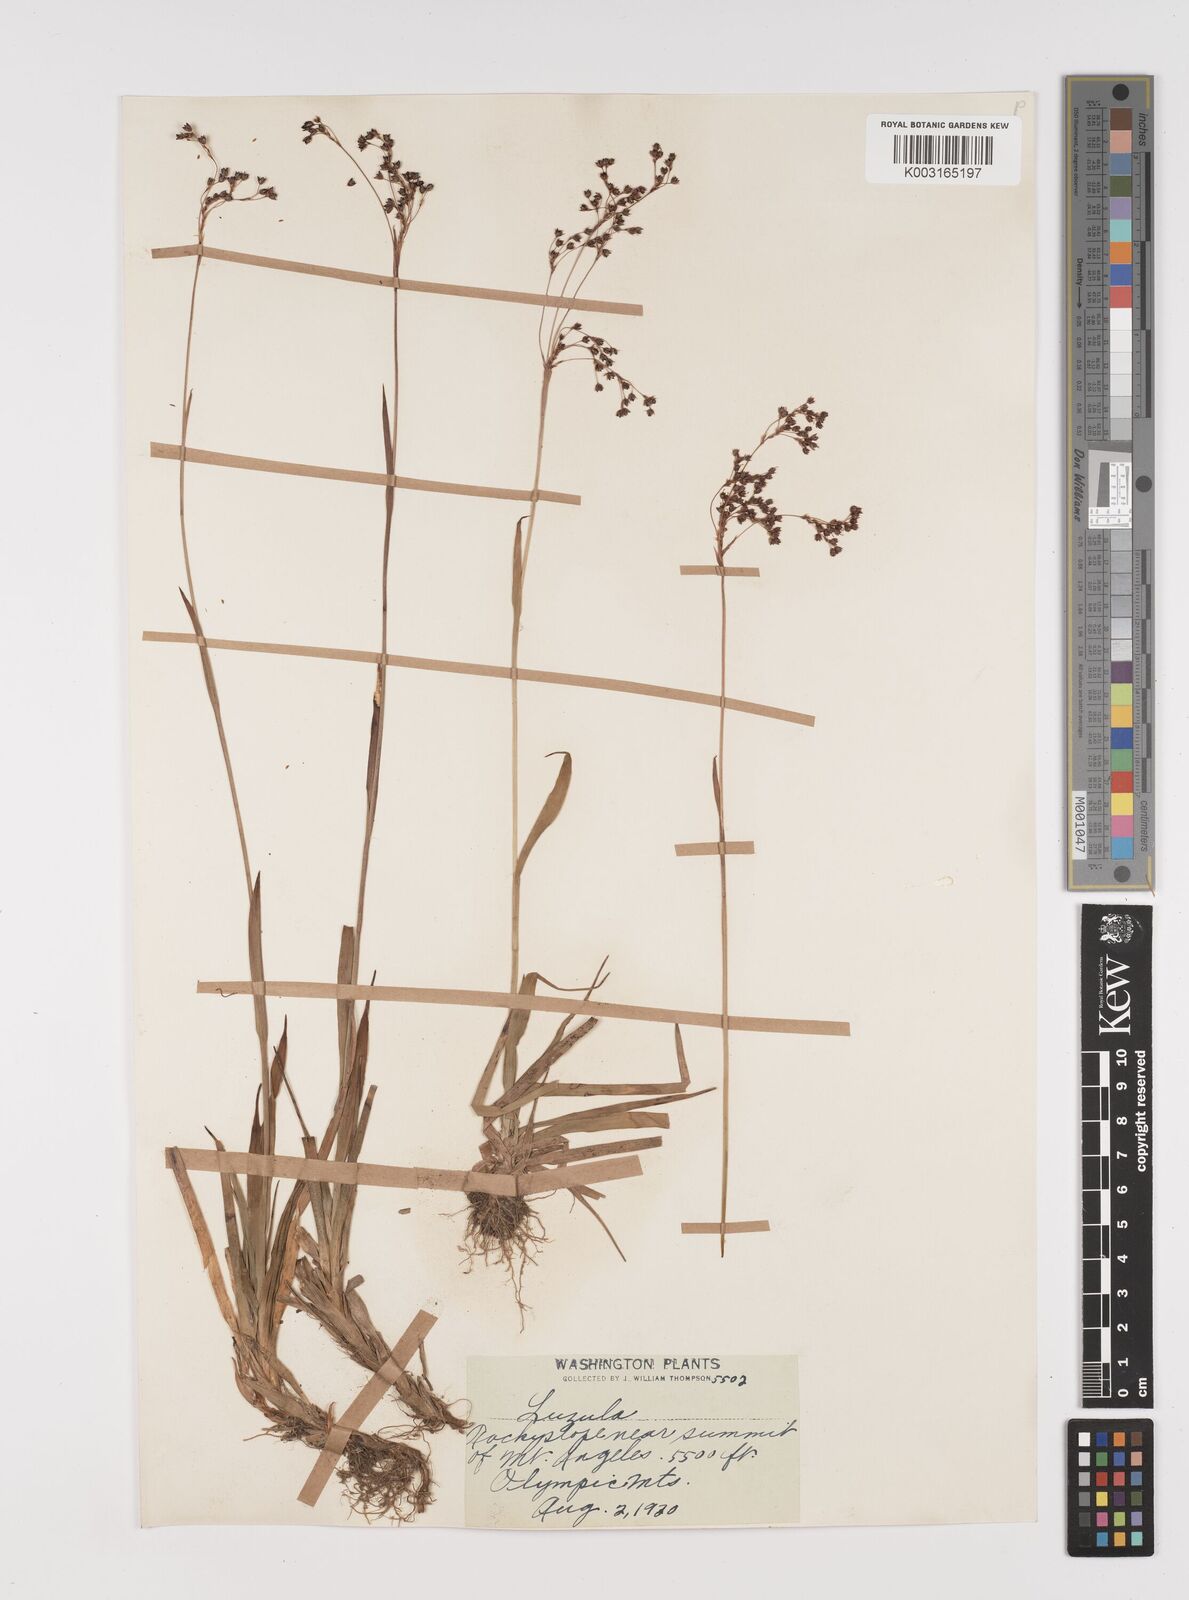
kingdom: Plantae
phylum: Tracheophyta
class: Liliopsida
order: Poales
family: Juncaceae
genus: Luzula
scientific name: Luzula
